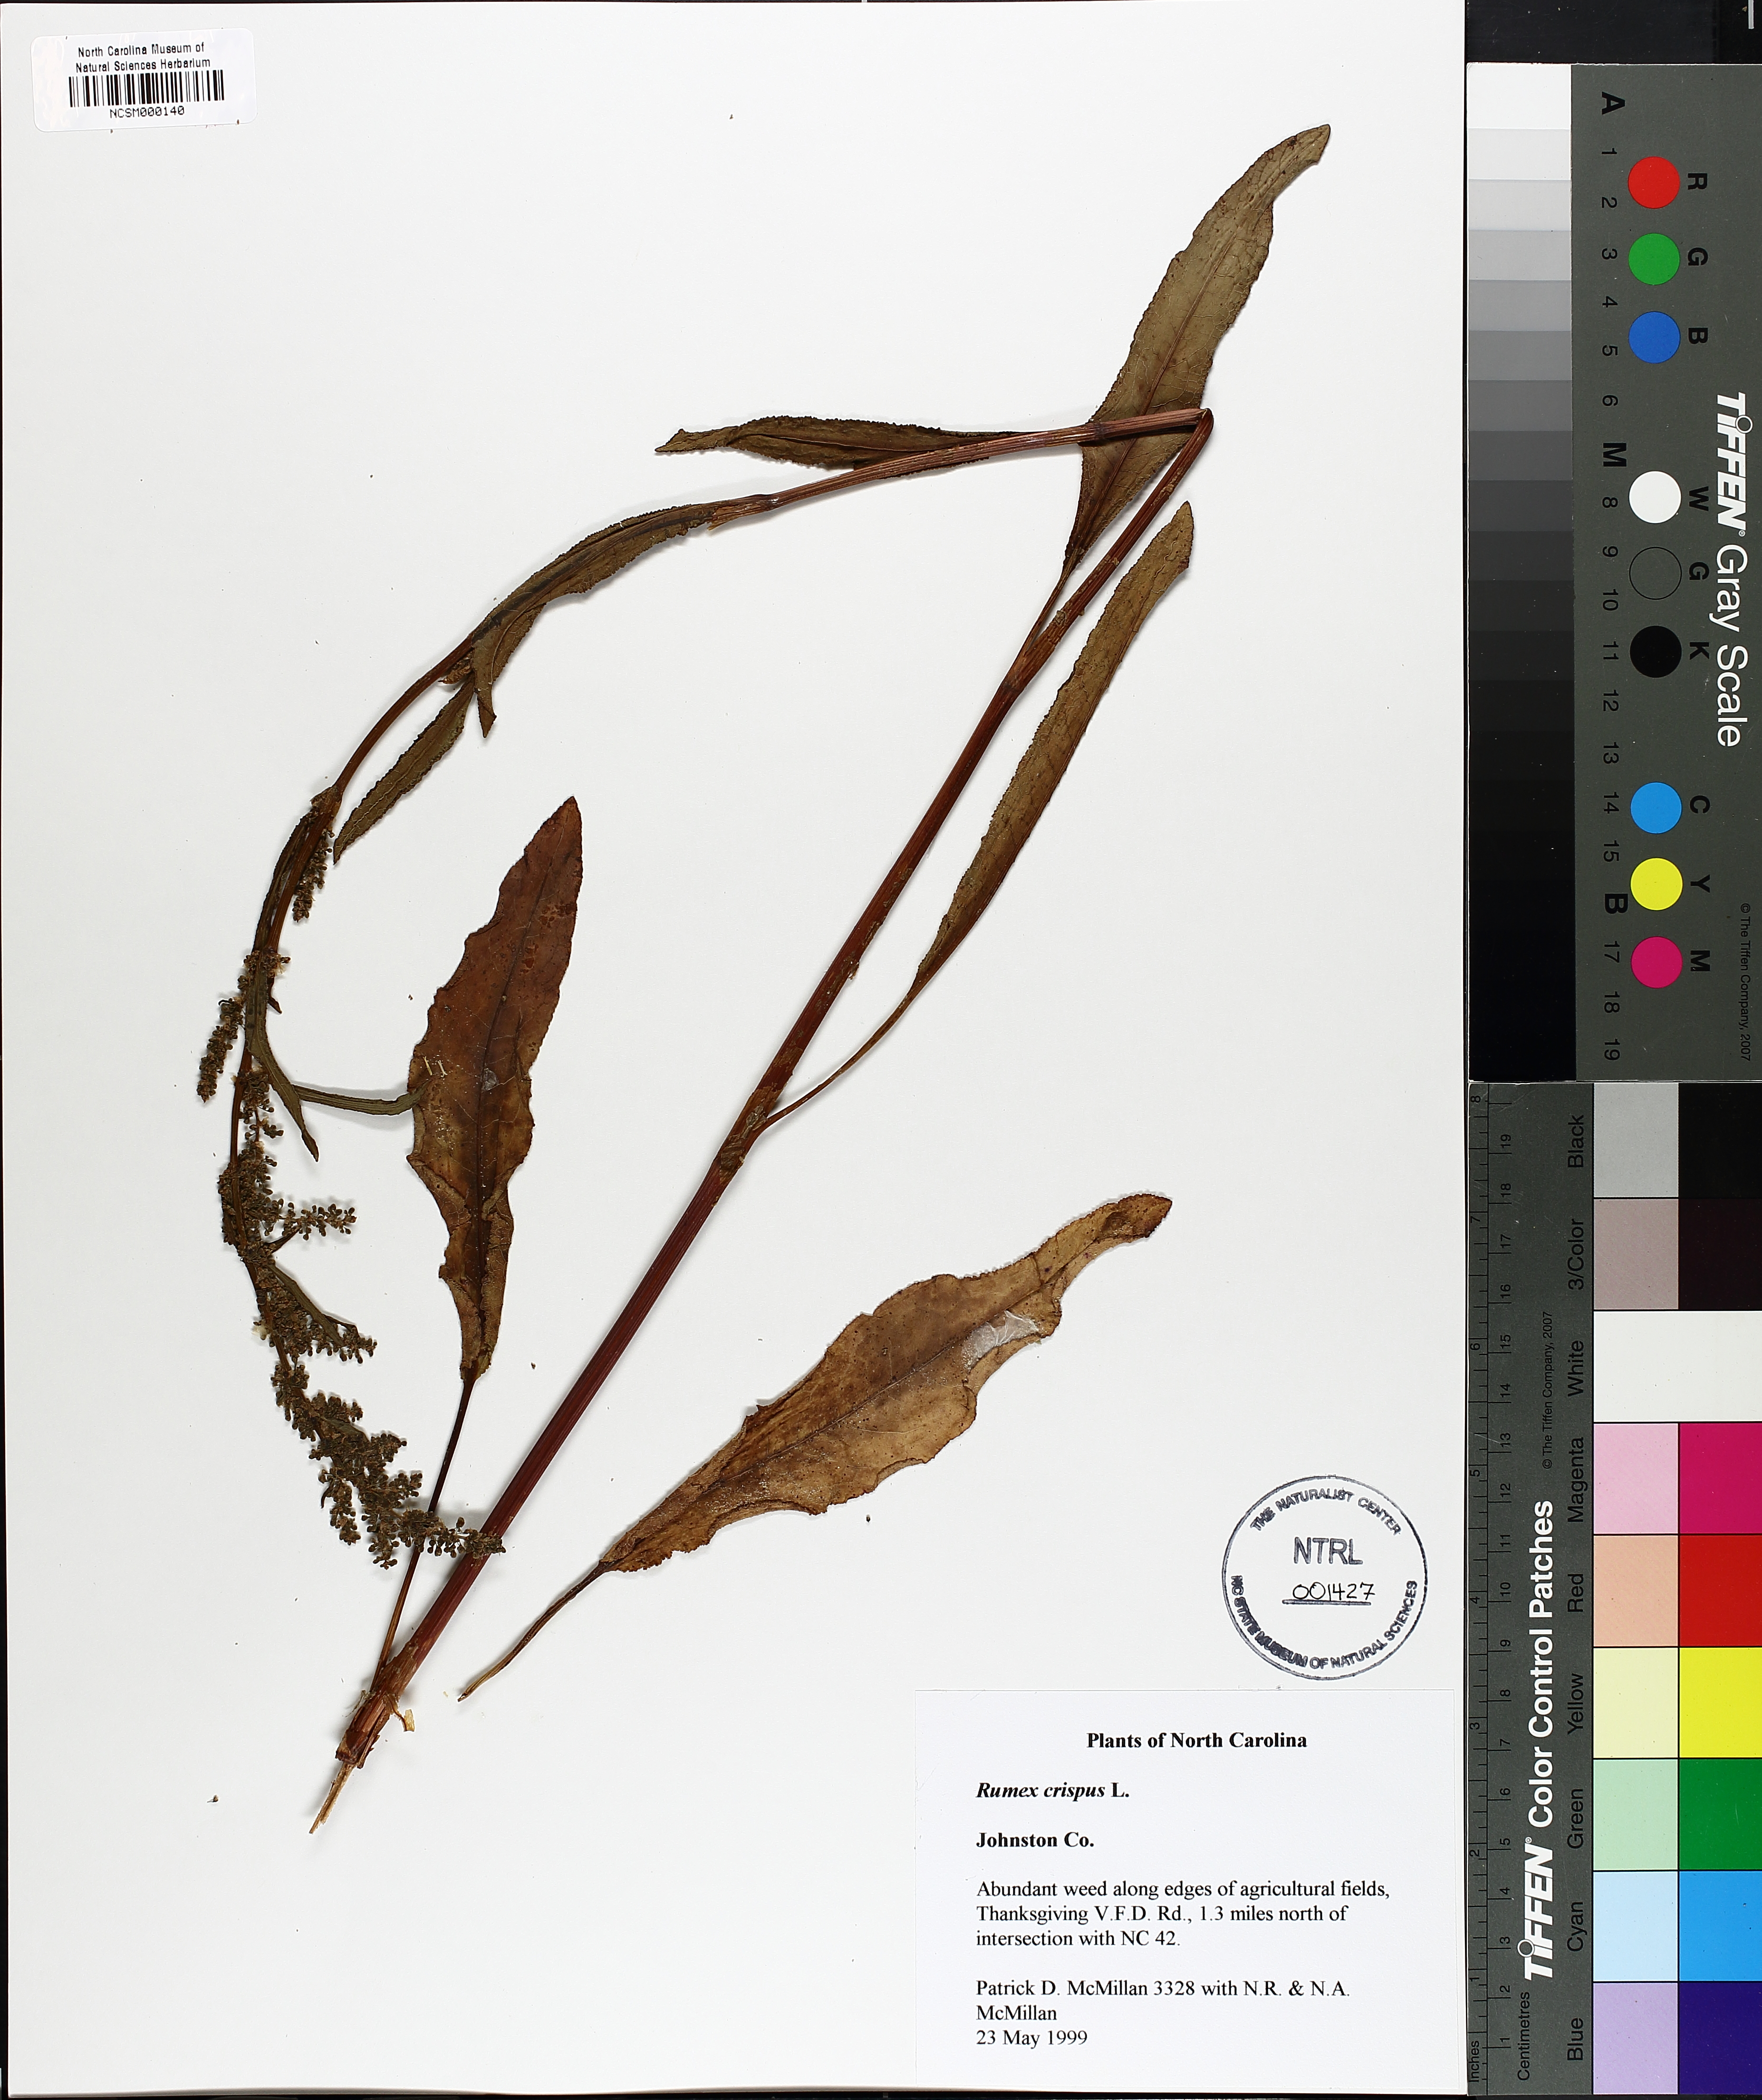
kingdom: Plantae
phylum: Tracheophyta
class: Magnoliopsida
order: Caryophyllales
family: Polygonaceae
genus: Rumex
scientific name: Rumex crispus
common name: Curled dock
